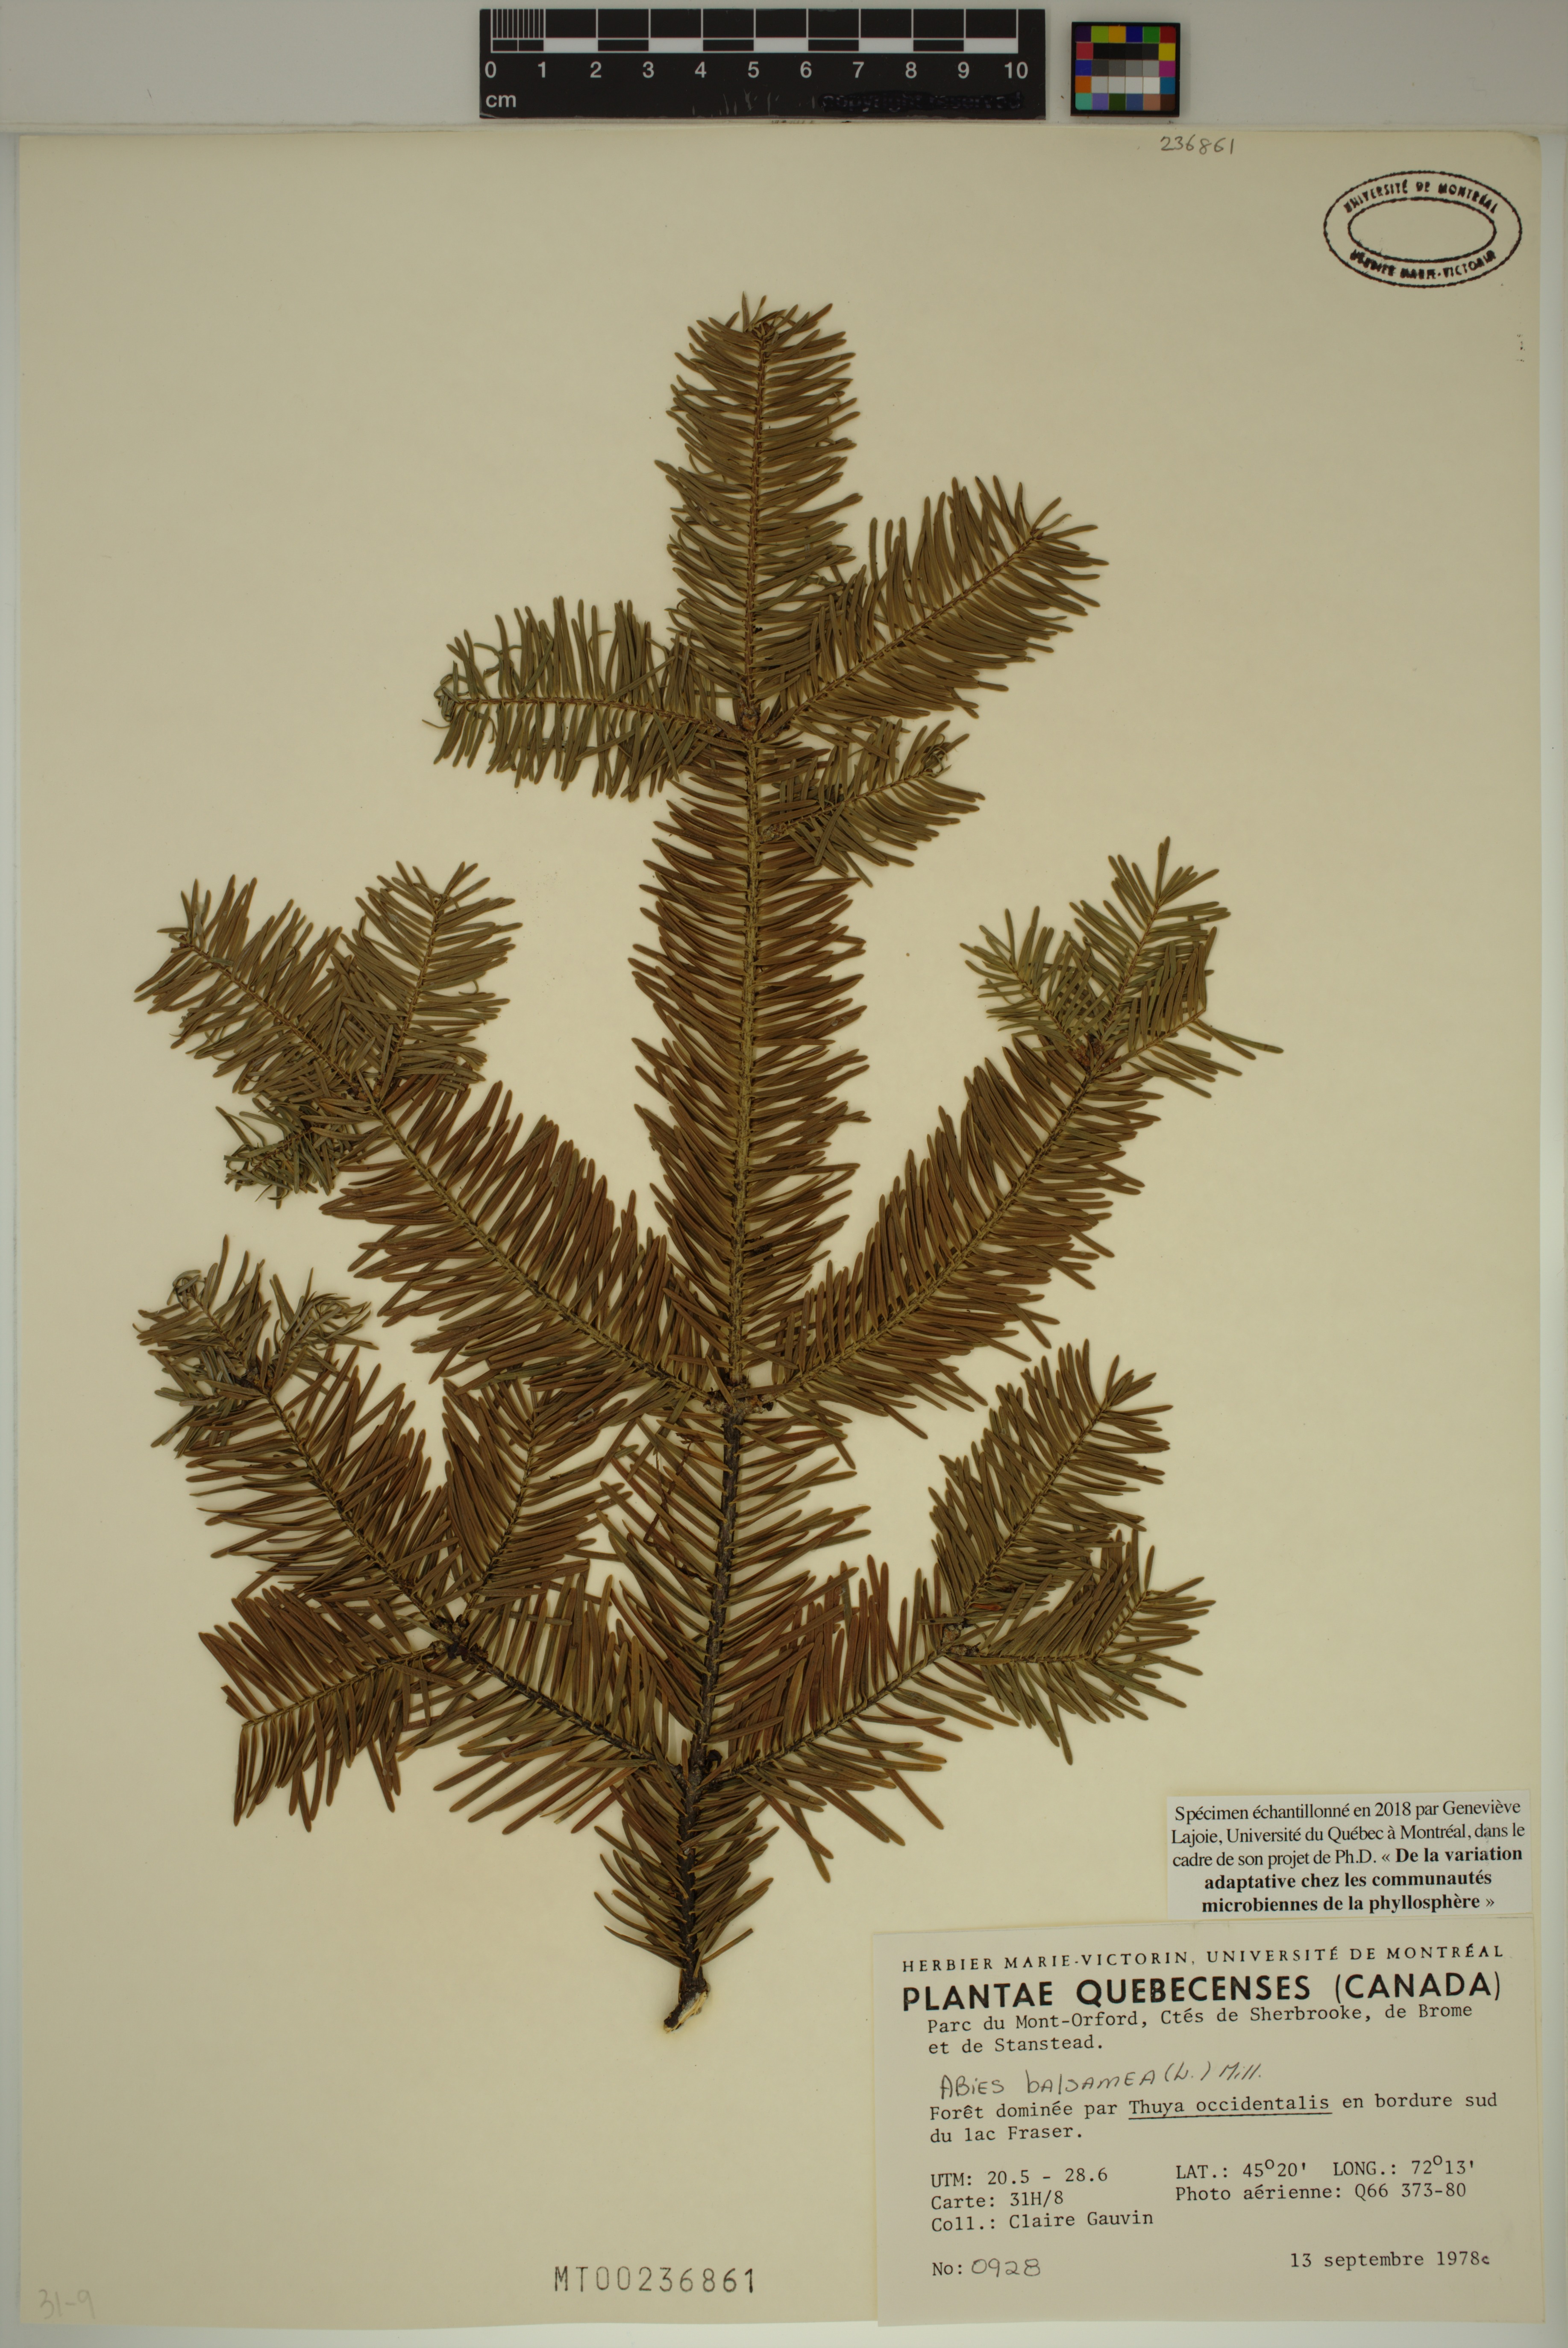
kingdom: Plantae
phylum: Tracheophyta
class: Pinopsida
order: Pinales
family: Pinaceae
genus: Abies
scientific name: Abies balsamea
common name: Balsam fir
